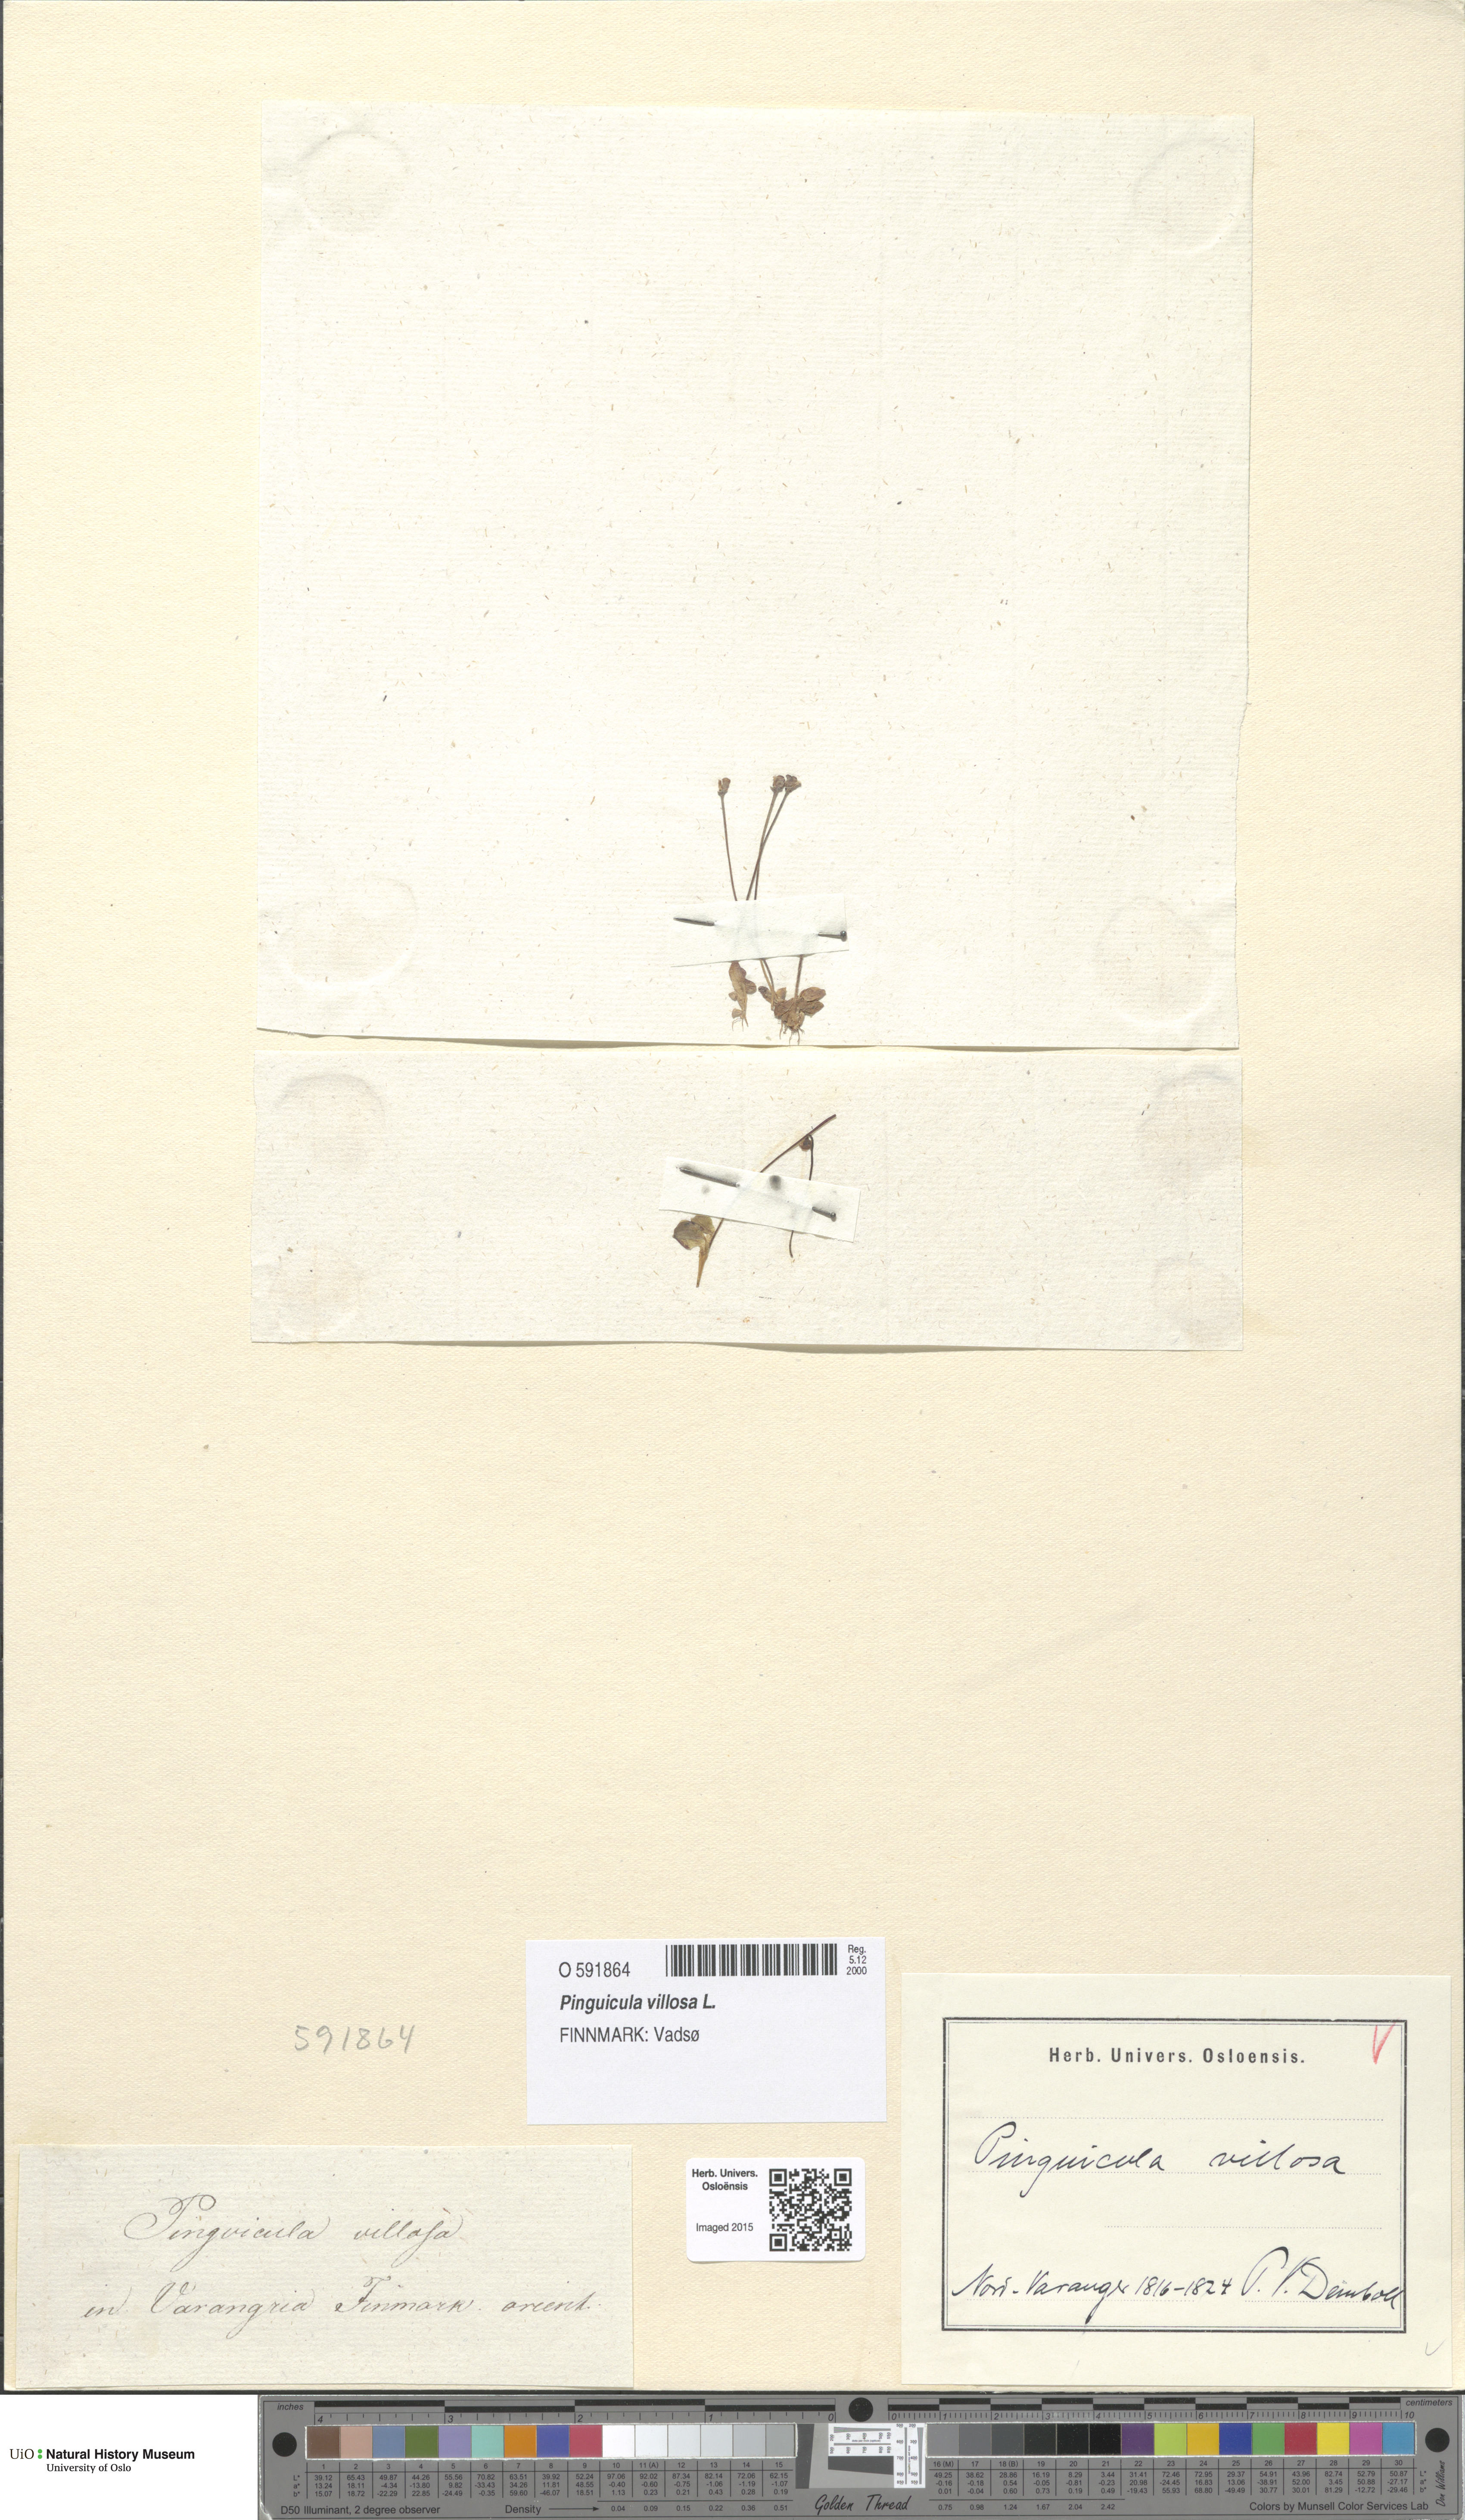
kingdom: Plantae
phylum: Tracheophyta
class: Magnoliopsida
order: Lamiales
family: Lentibulariaceae
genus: Pinguicula
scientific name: Pinguicula villosa
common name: Hairy butterwort
